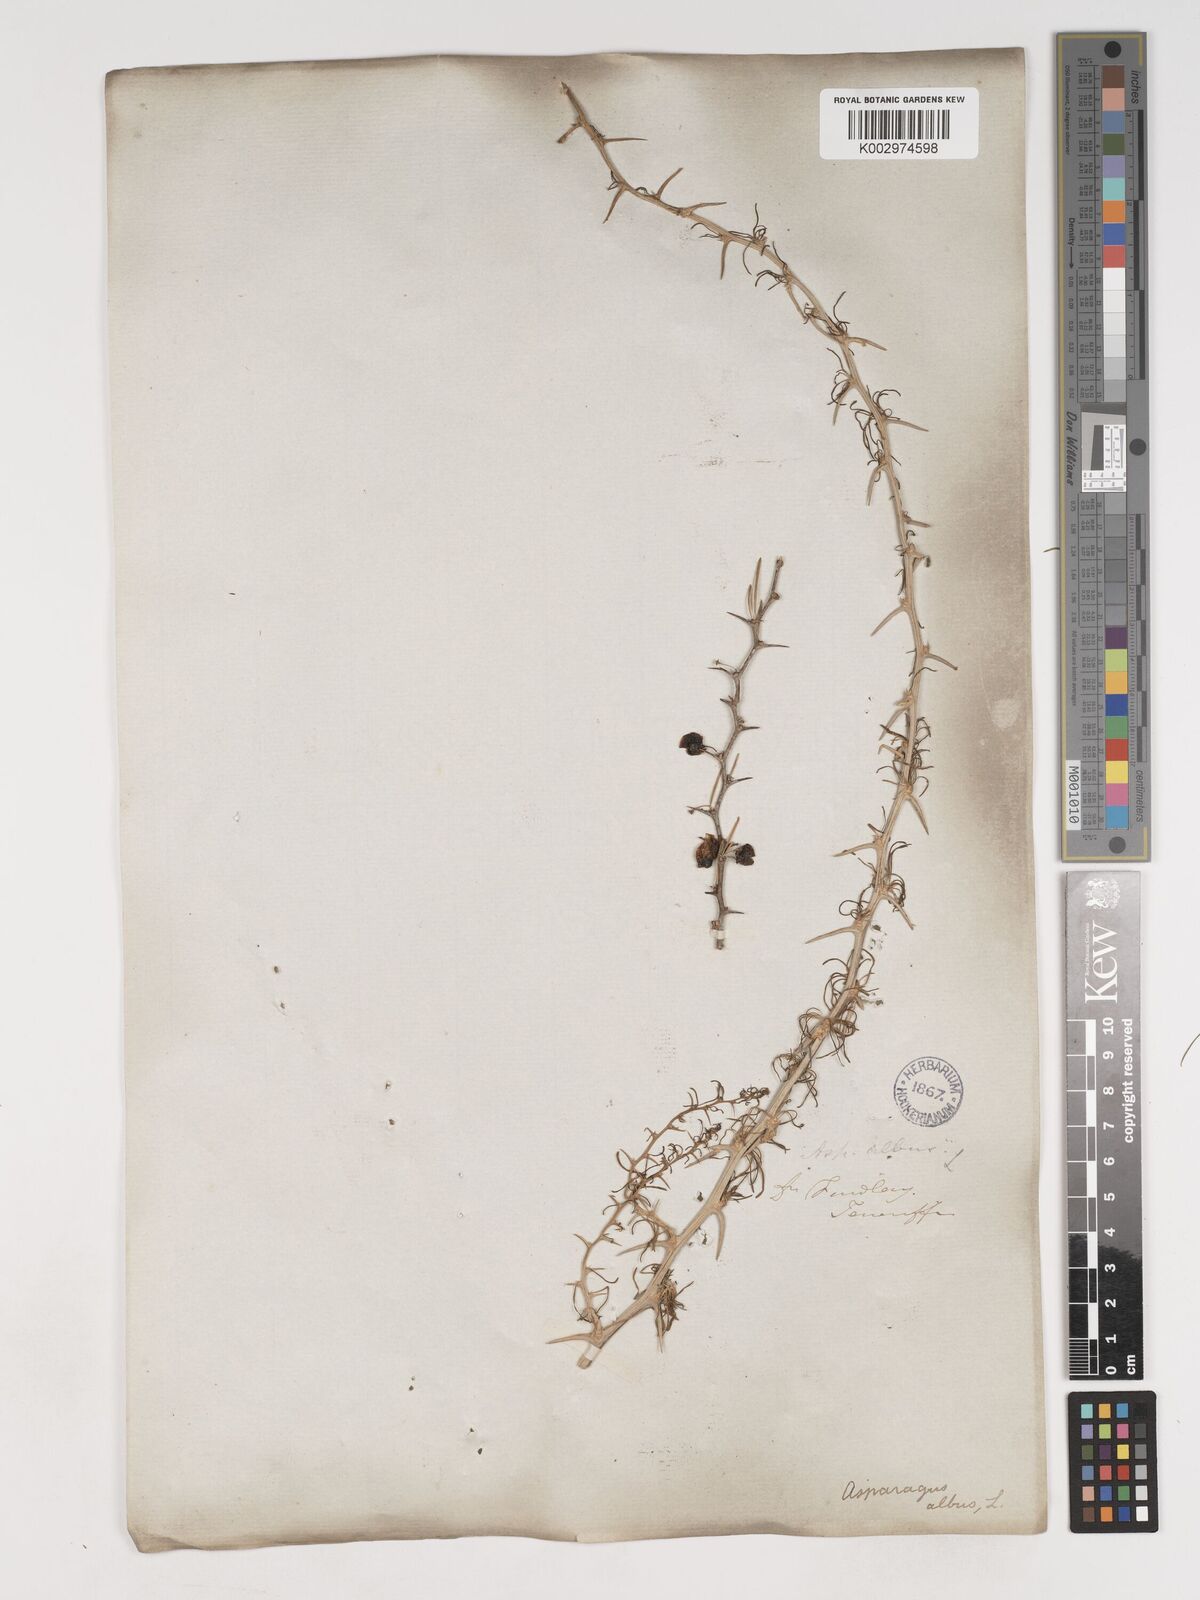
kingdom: Plantae
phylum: Tracheophyta
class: Liliopsida
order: Asparagales
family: Asparagaceae
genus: Asparagus
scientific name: Asparagus albus
